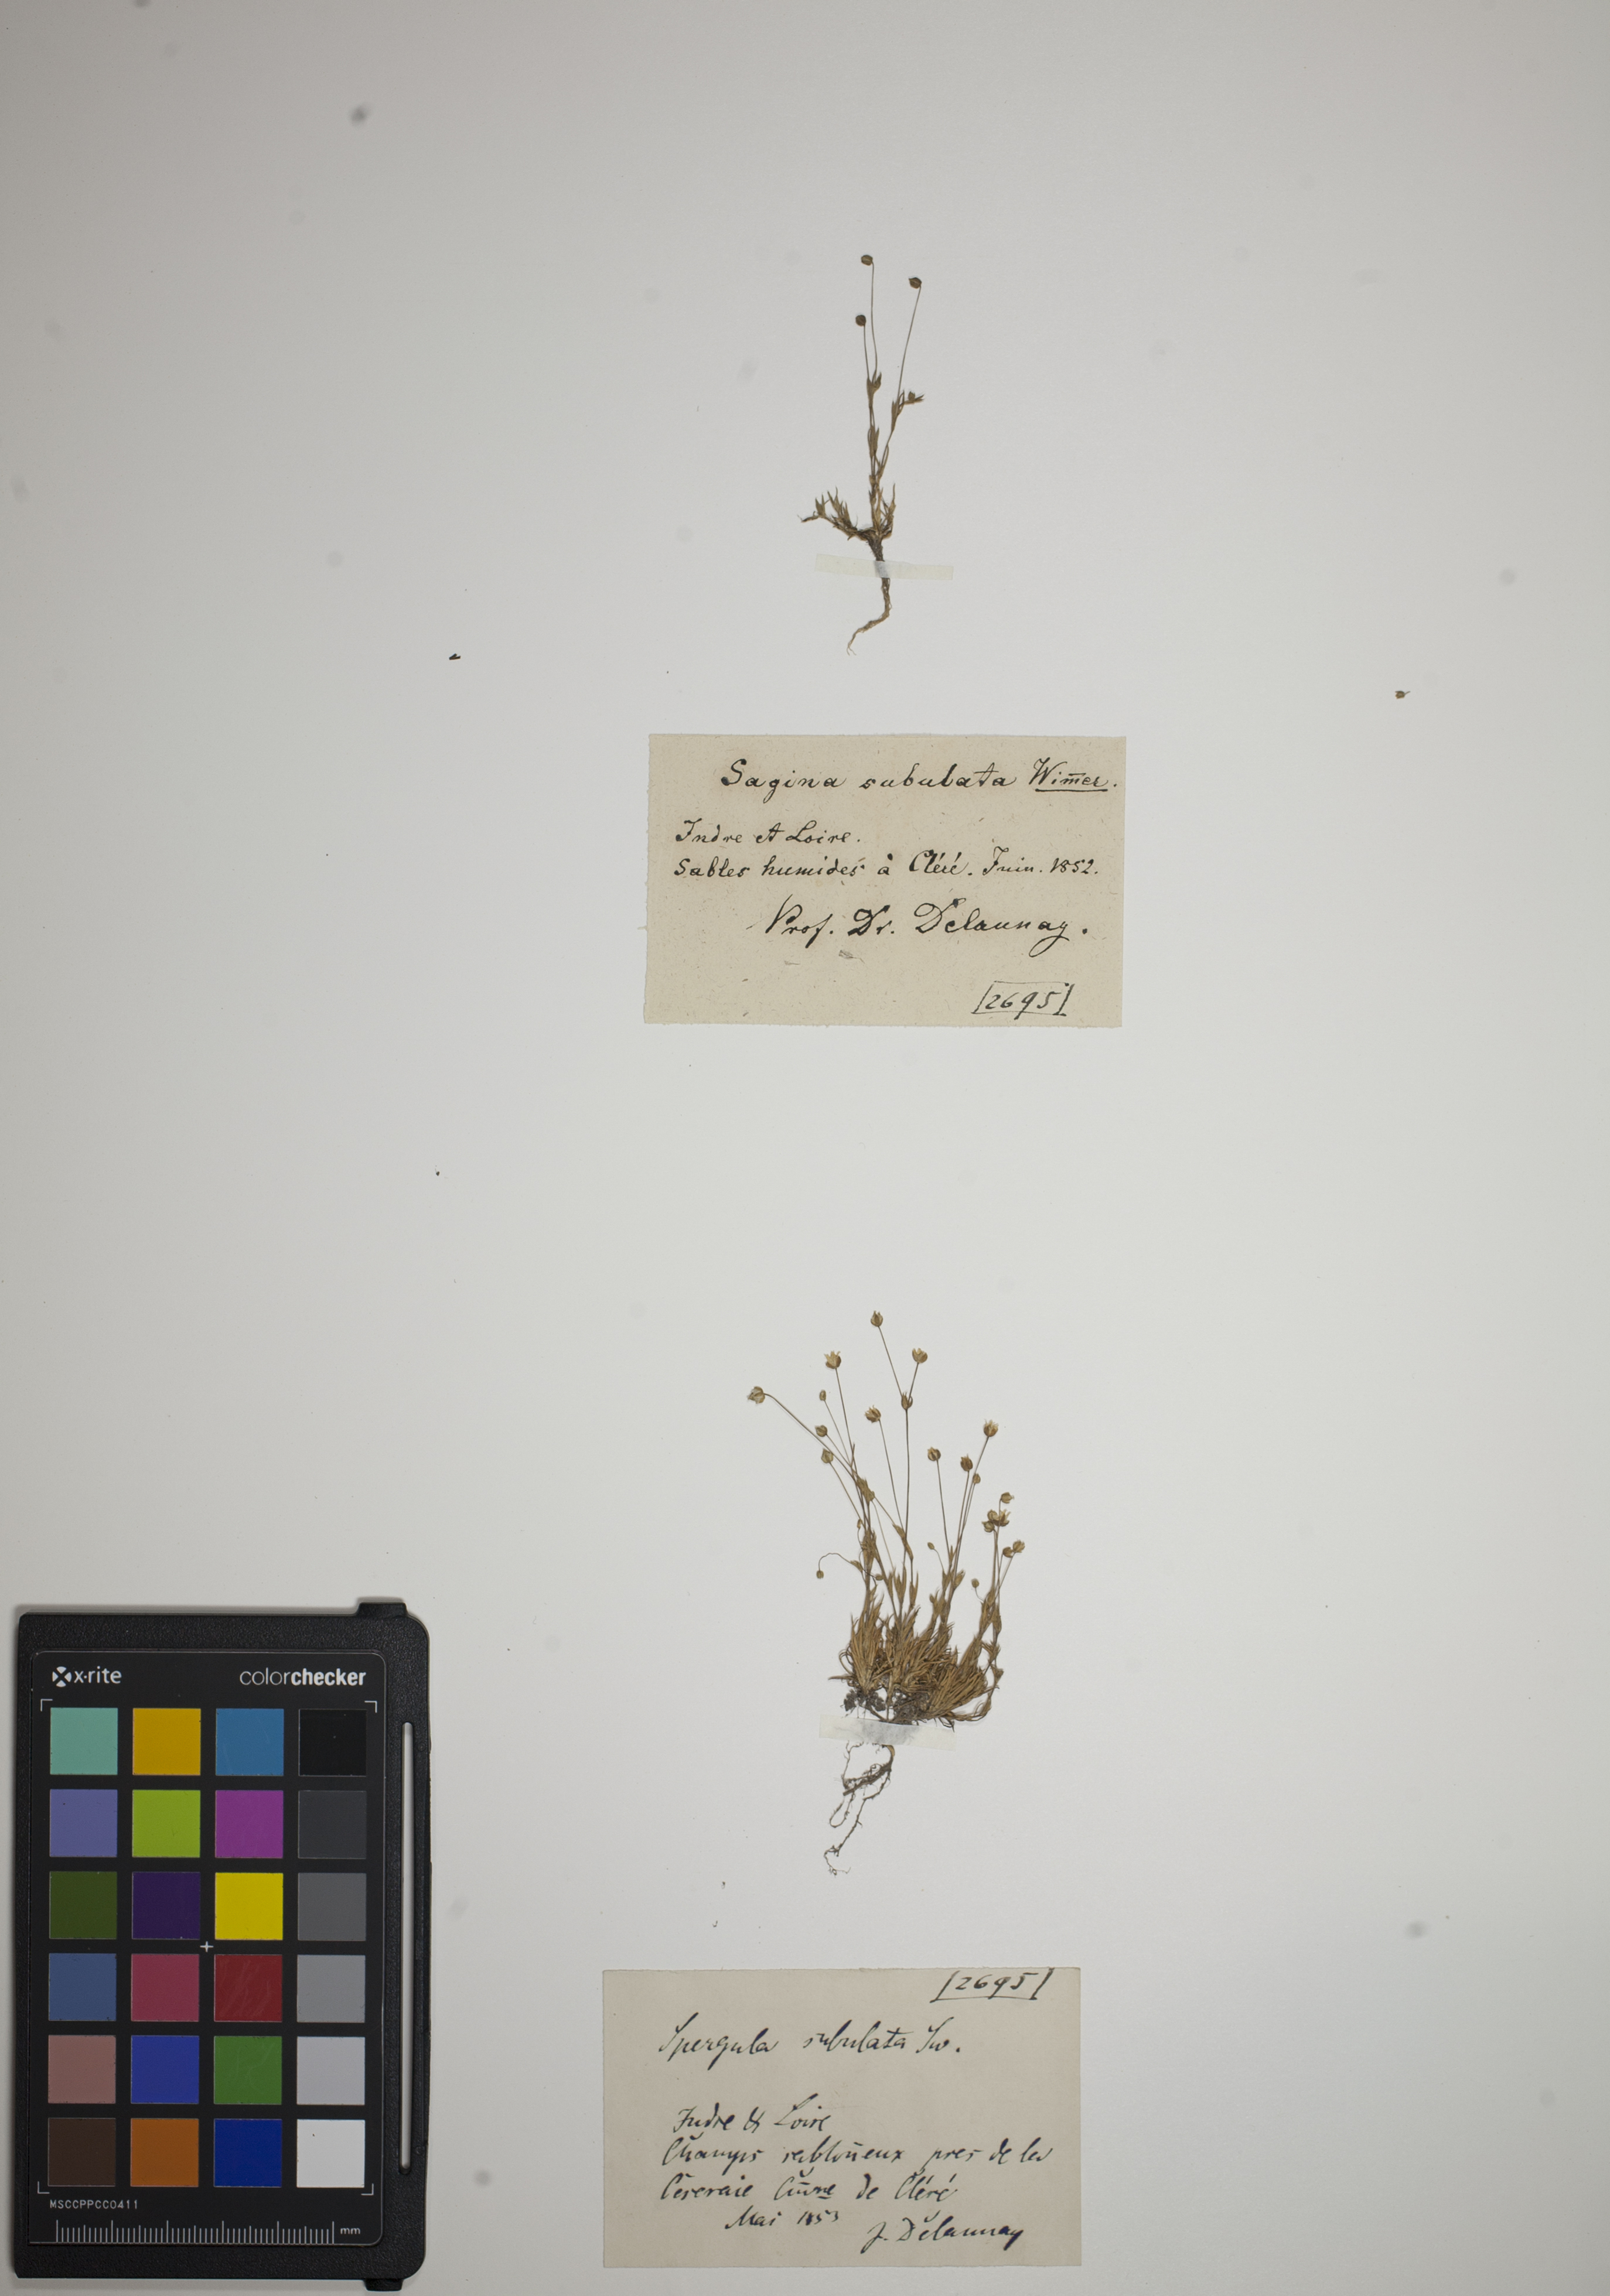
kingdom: Plantae
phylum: Tracheophyta
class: Magnoliopsida
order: Caryophyllales
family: Caryophyllaceae
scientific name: Caryophyllaceae
